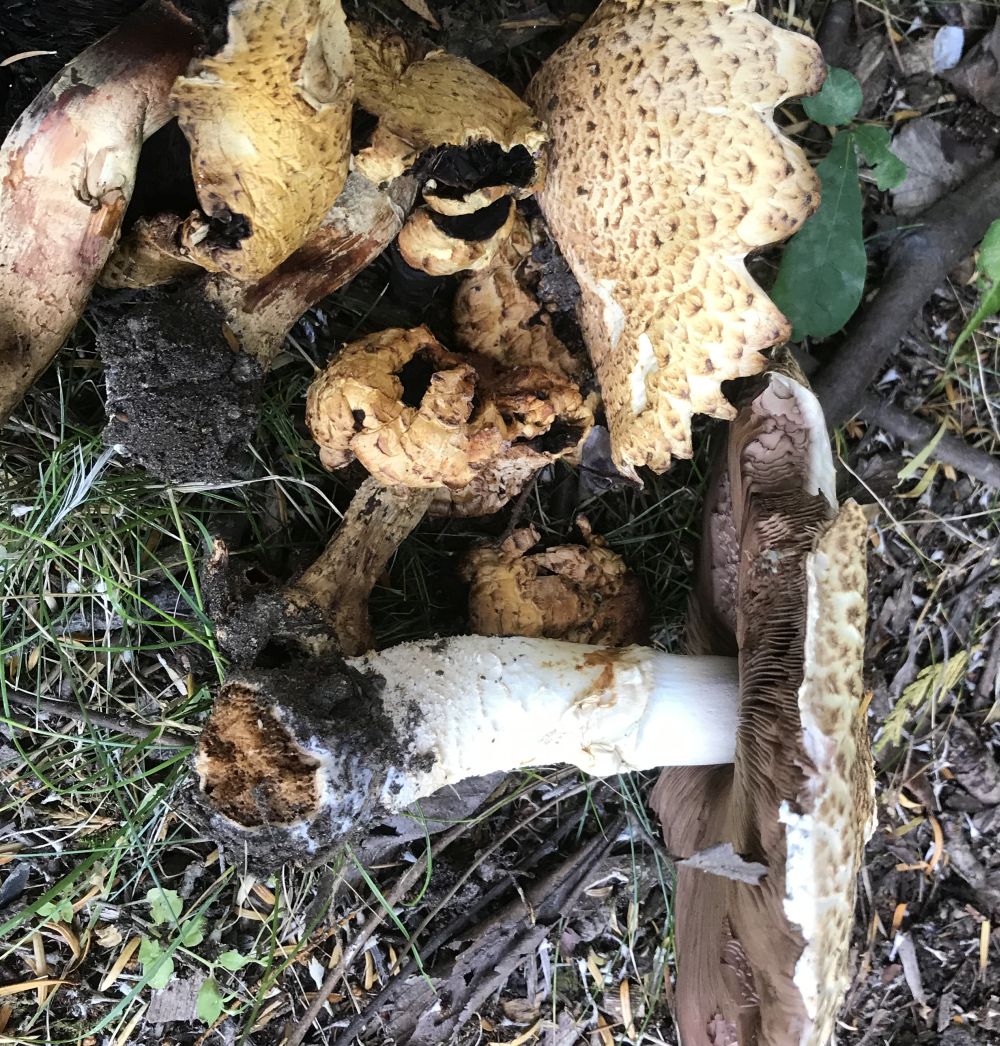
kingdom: Fungi
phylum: Basidiomycota
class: Agaricomycetes
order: Agaricales
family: Agaricaceae
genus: Agaricus
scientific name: Agaricus augustus
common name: prægtig champignon
